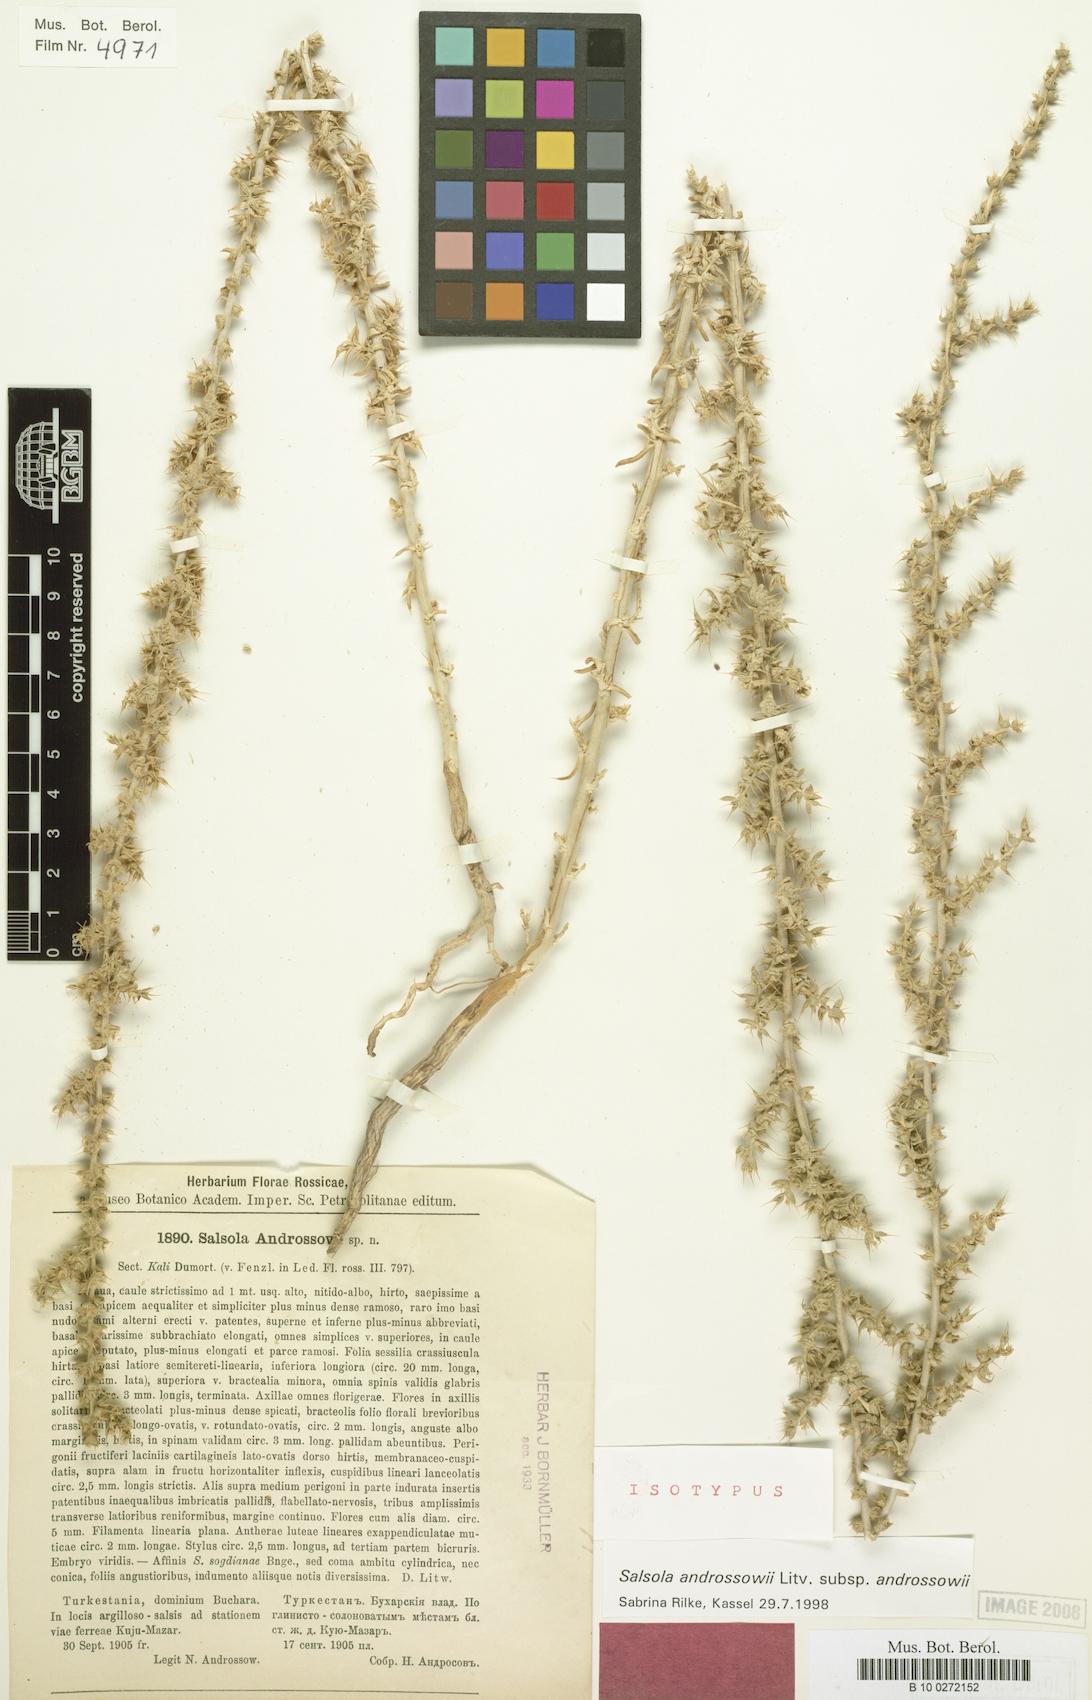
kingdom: Plantae
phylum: Tracheophyta
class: Magnoliopsida
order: Caryophyllales
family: Amaranthaceae
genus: Turania
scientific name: Turania androssowii
